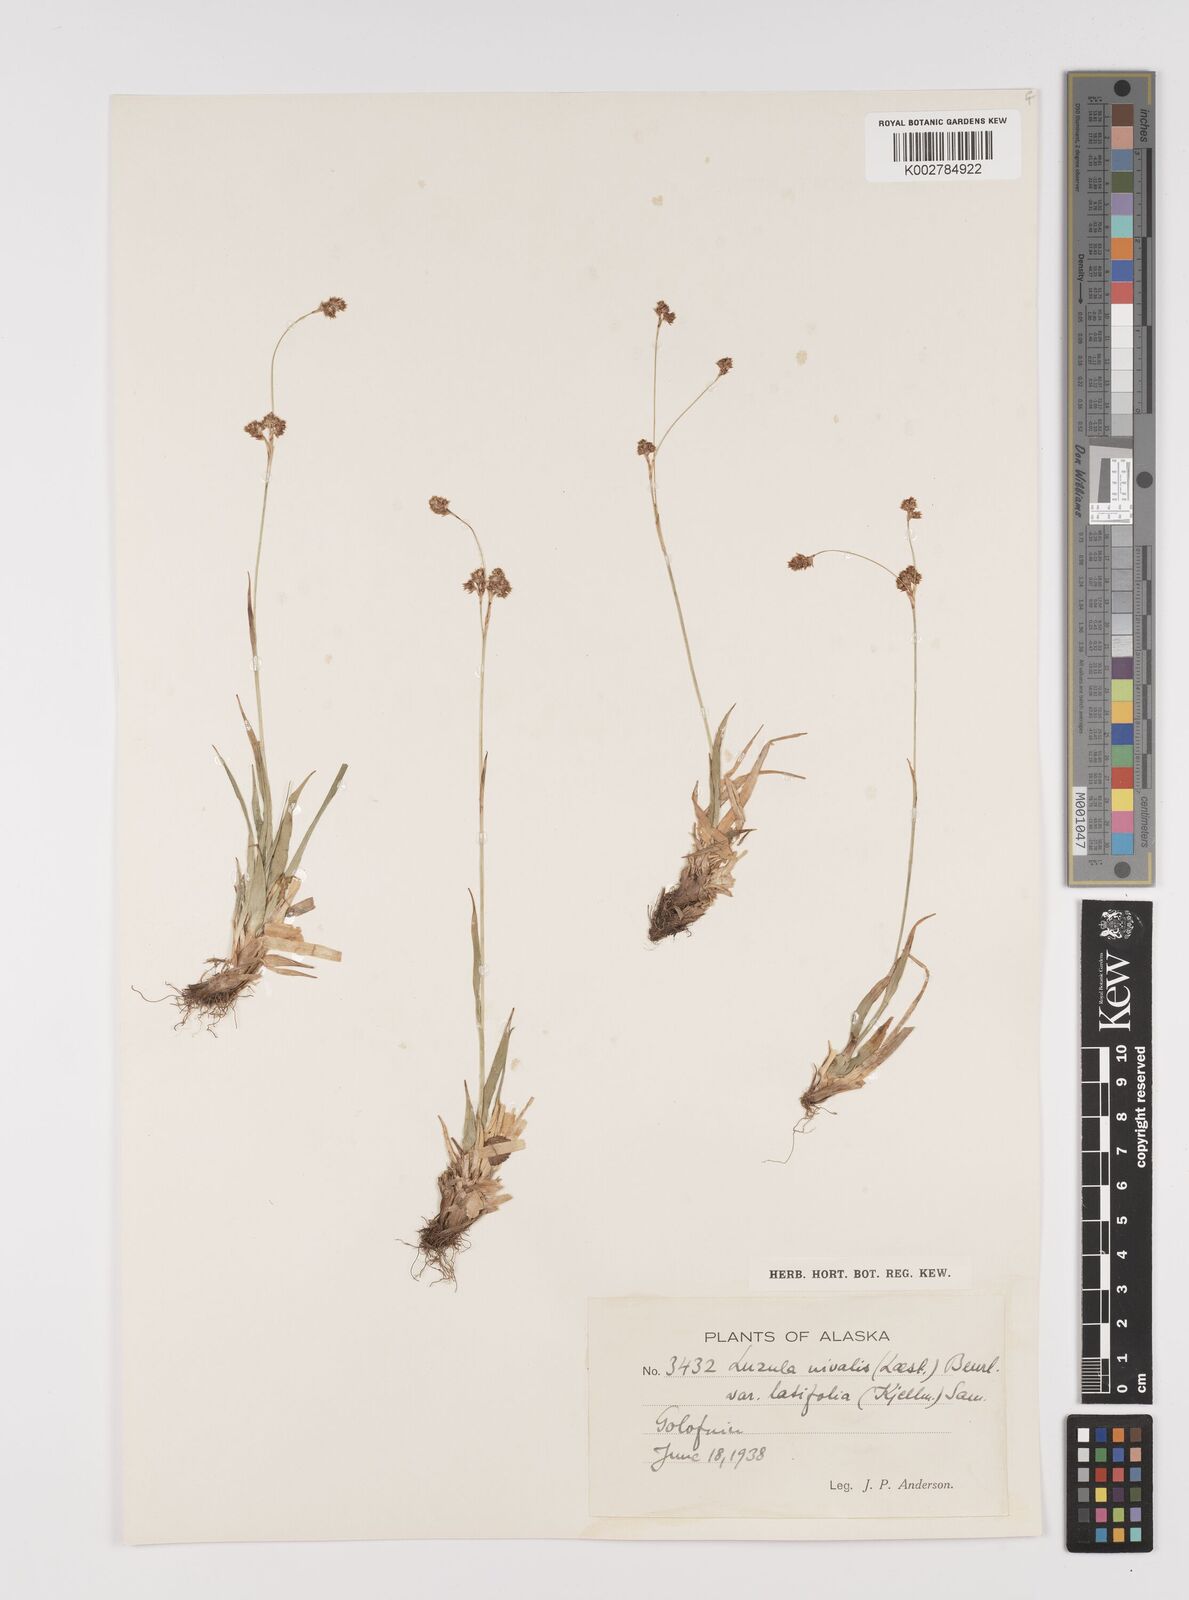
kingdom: Plantae
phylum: Tracheophyta
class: Liliopsida
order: Poales
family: Juncaceae
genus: Luzula
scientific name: Luzula nivalis
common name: Arctic woodrush
